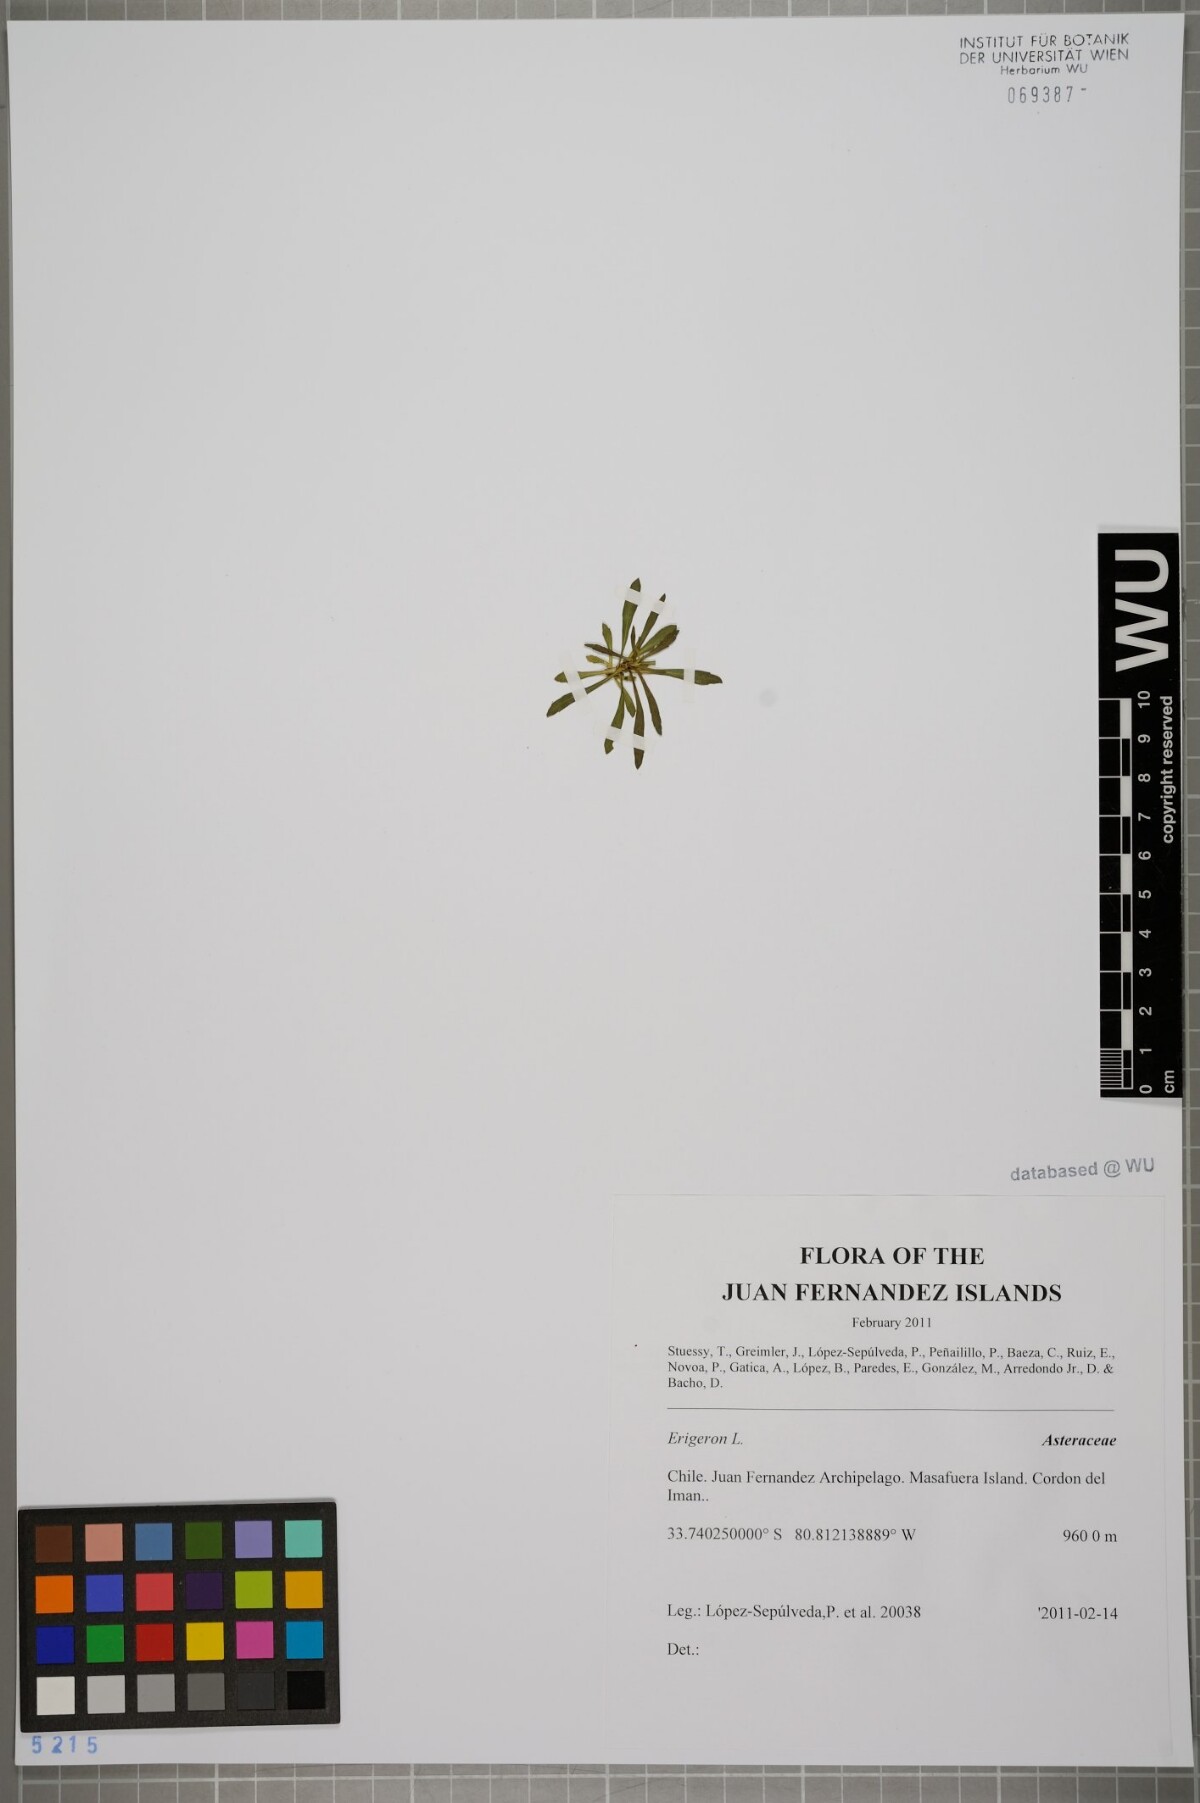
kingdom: Plantae
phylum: Tracheophyta
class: Magnoliopsida
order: Asterales
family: Asteraceae
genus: Erigeron
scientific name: Erigeron
